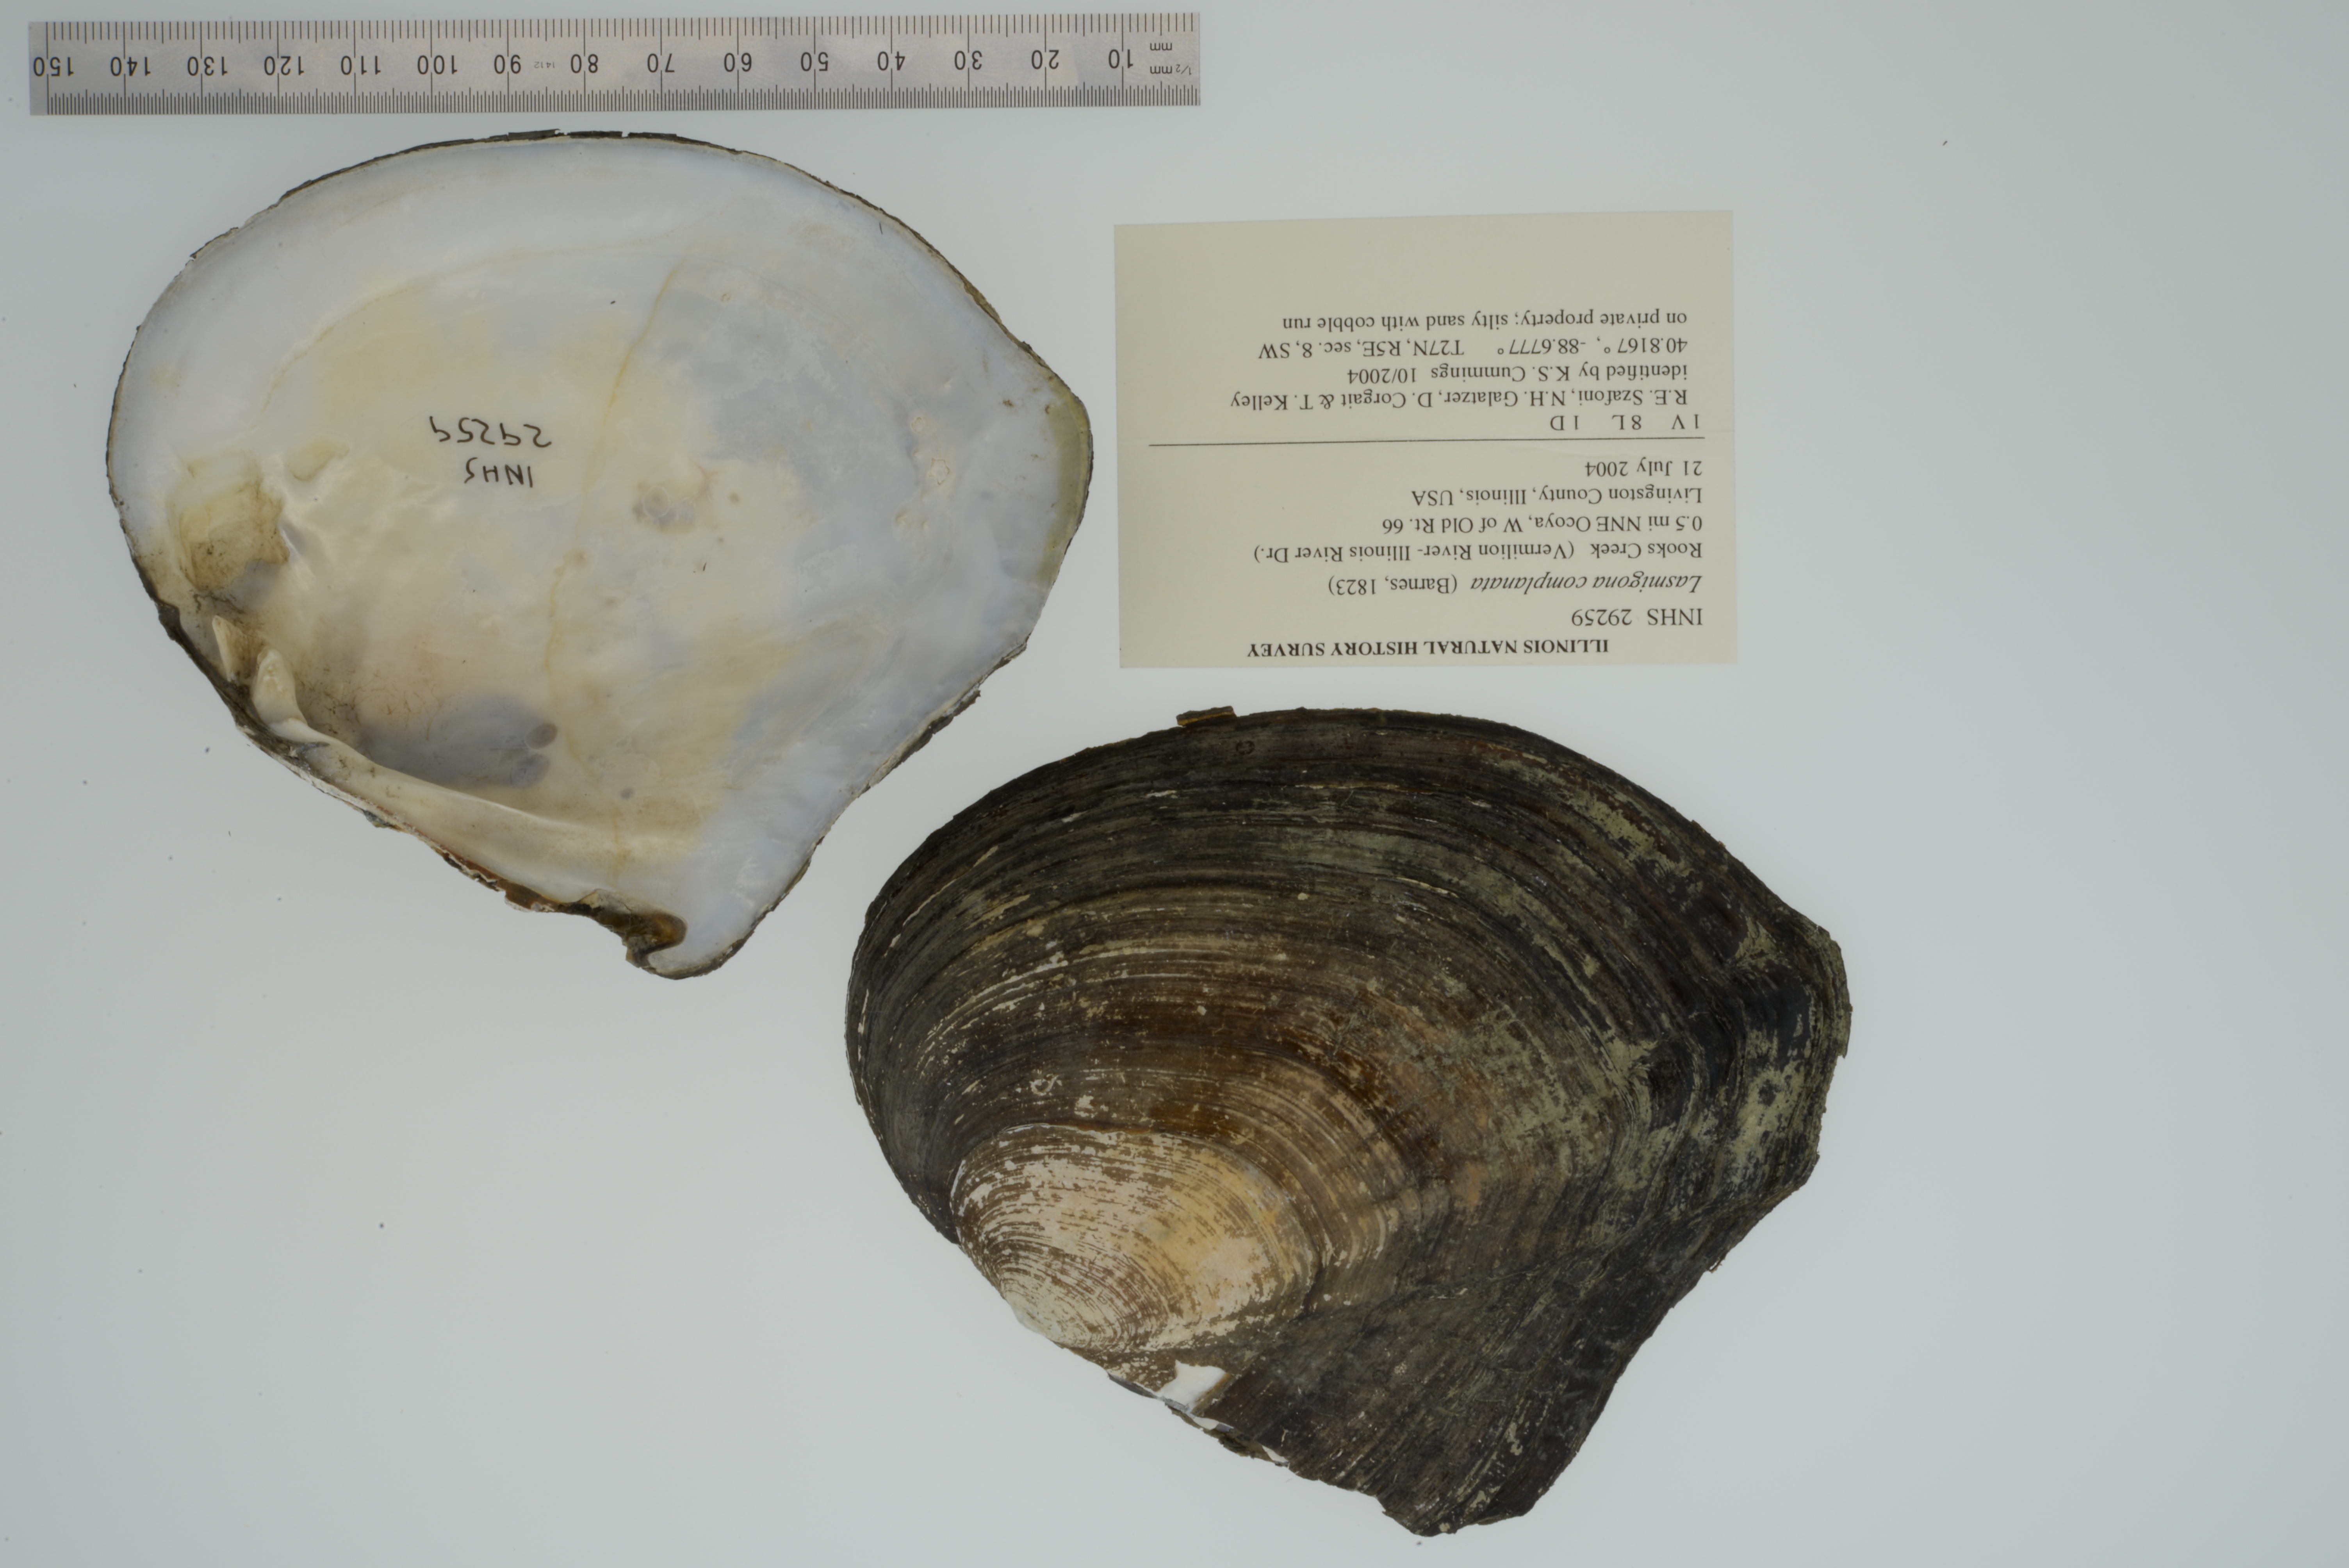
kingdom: Animalia
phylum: Mollusca
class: Bivalvia
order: Unionida
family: Unionidae
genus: Lasmigona
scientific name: Lasmigona complanata
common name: White heelsplitter
